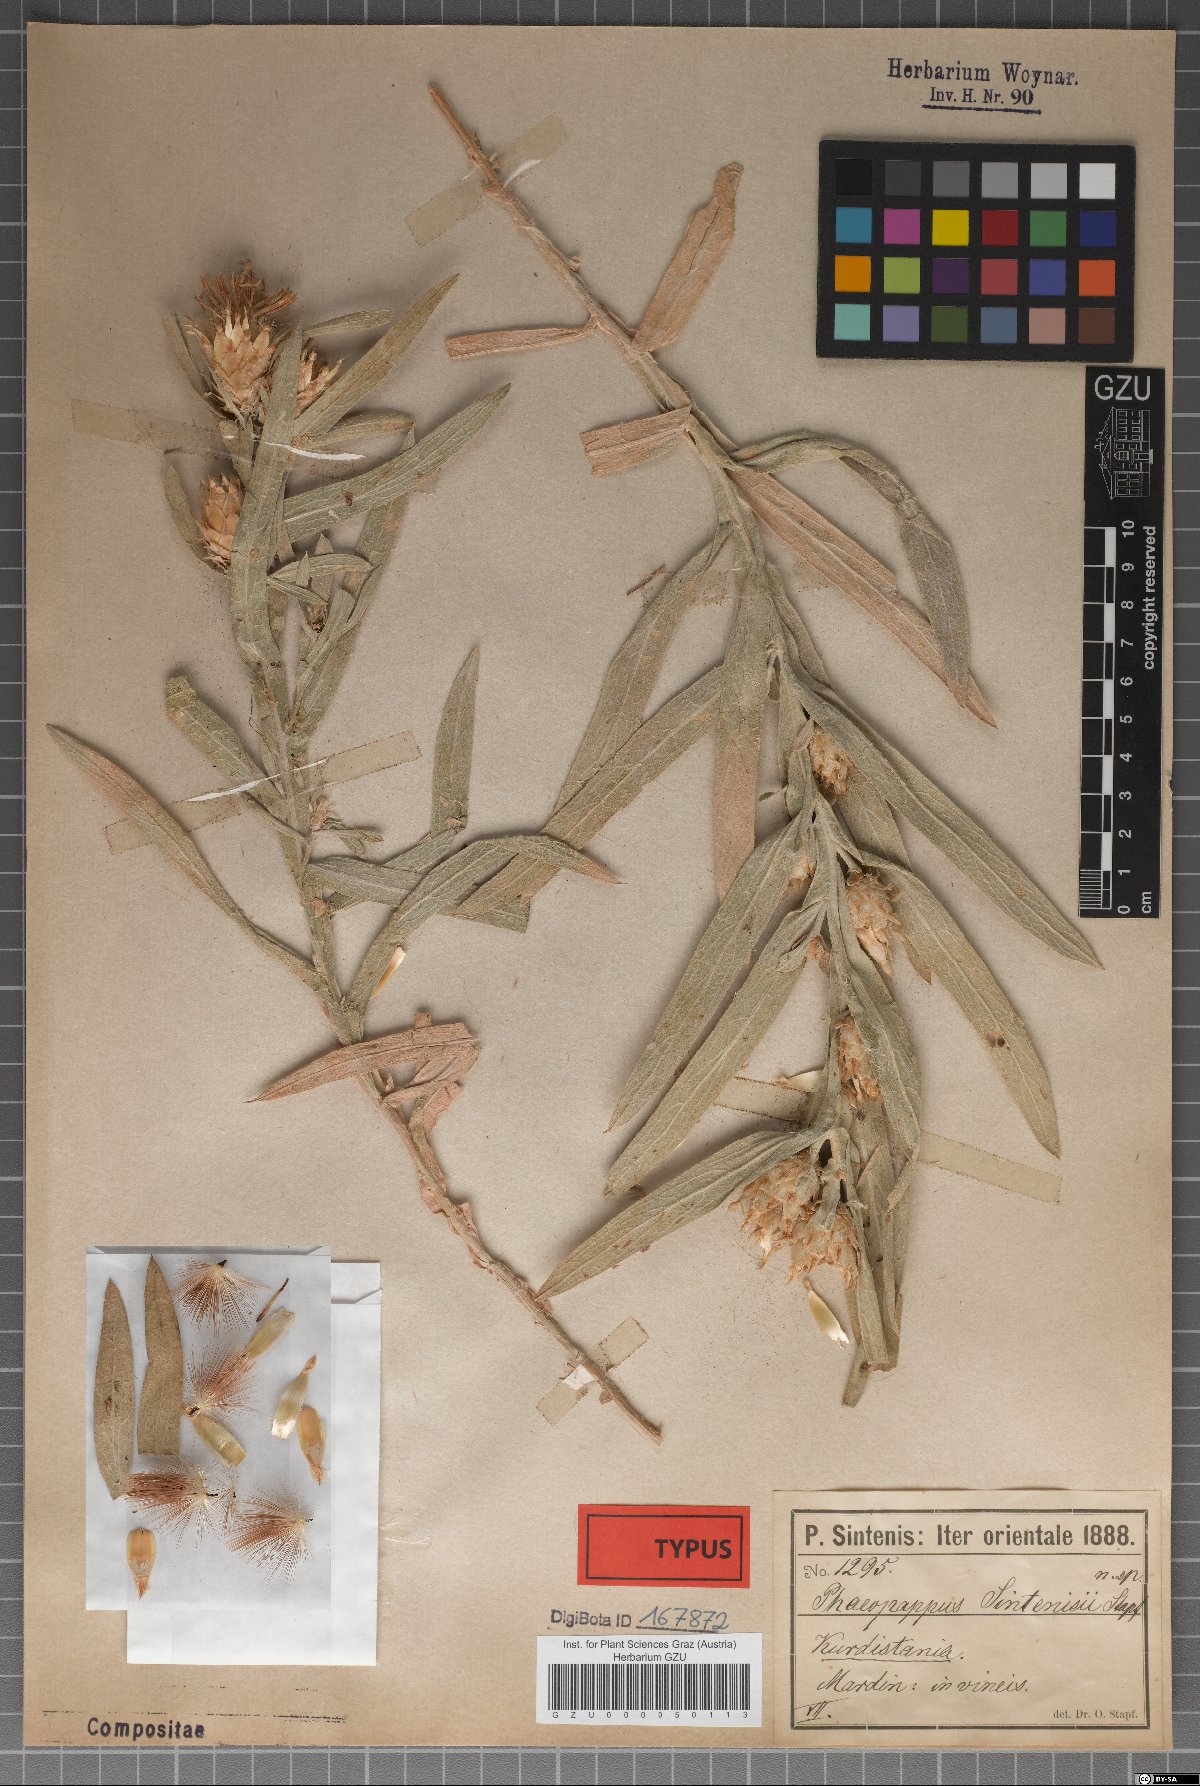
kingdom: Plantae
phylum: Tracheophyta
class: Magnoliopsida
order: Asterales
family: Asteraceae
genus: Centaurea
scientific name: Centaurea stapfiana
